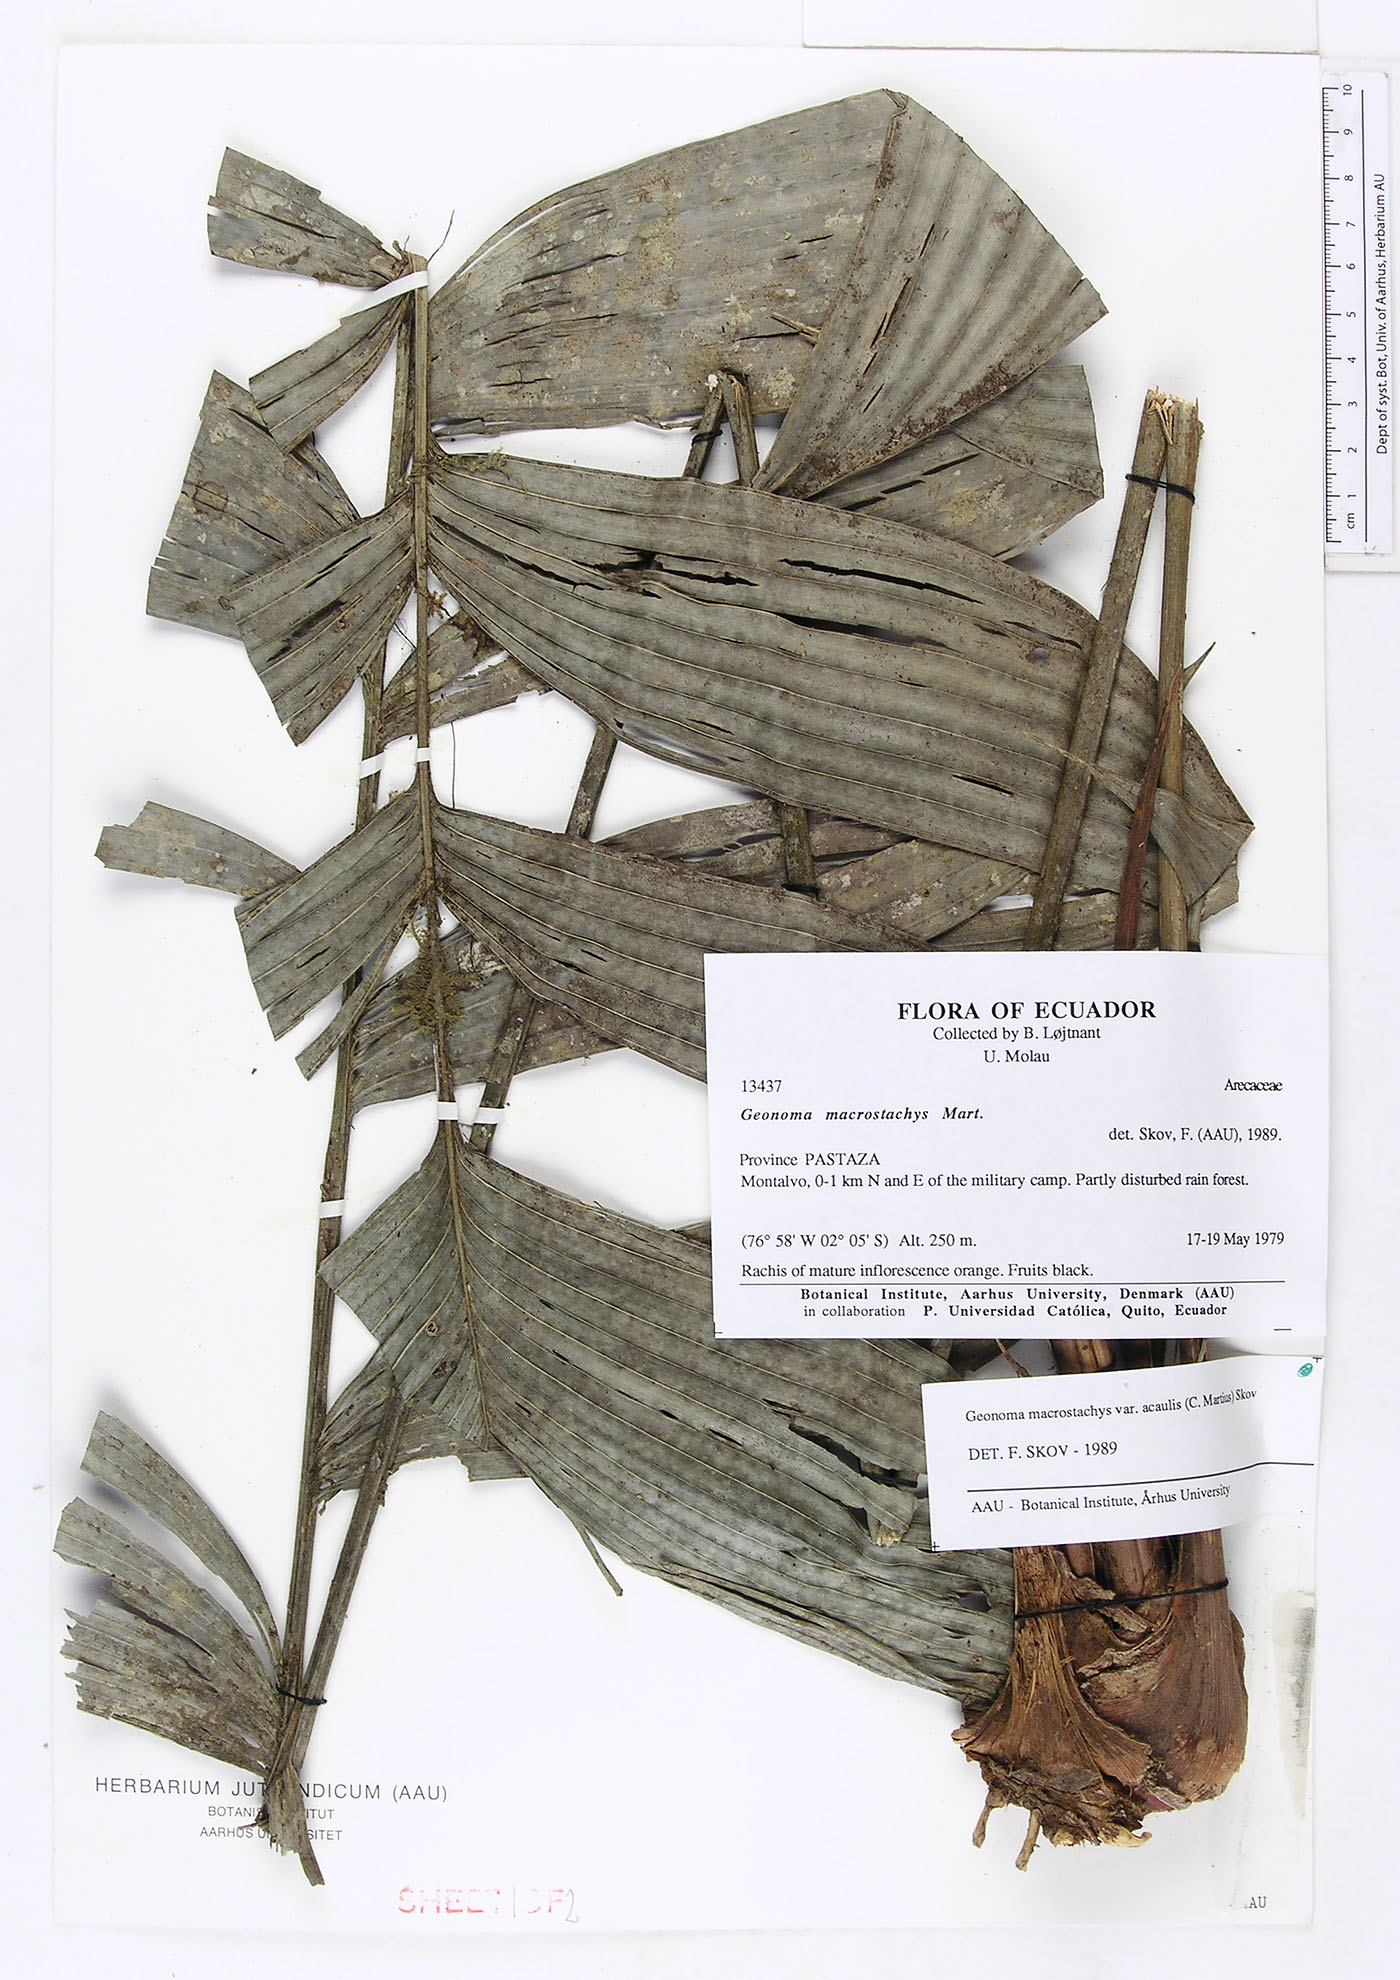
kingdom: Plantae
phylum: Tracheophyta
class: Liliopsida
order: Arecales
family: Arecaceae
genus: Geonoma
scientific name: Geonoma macrostachys
